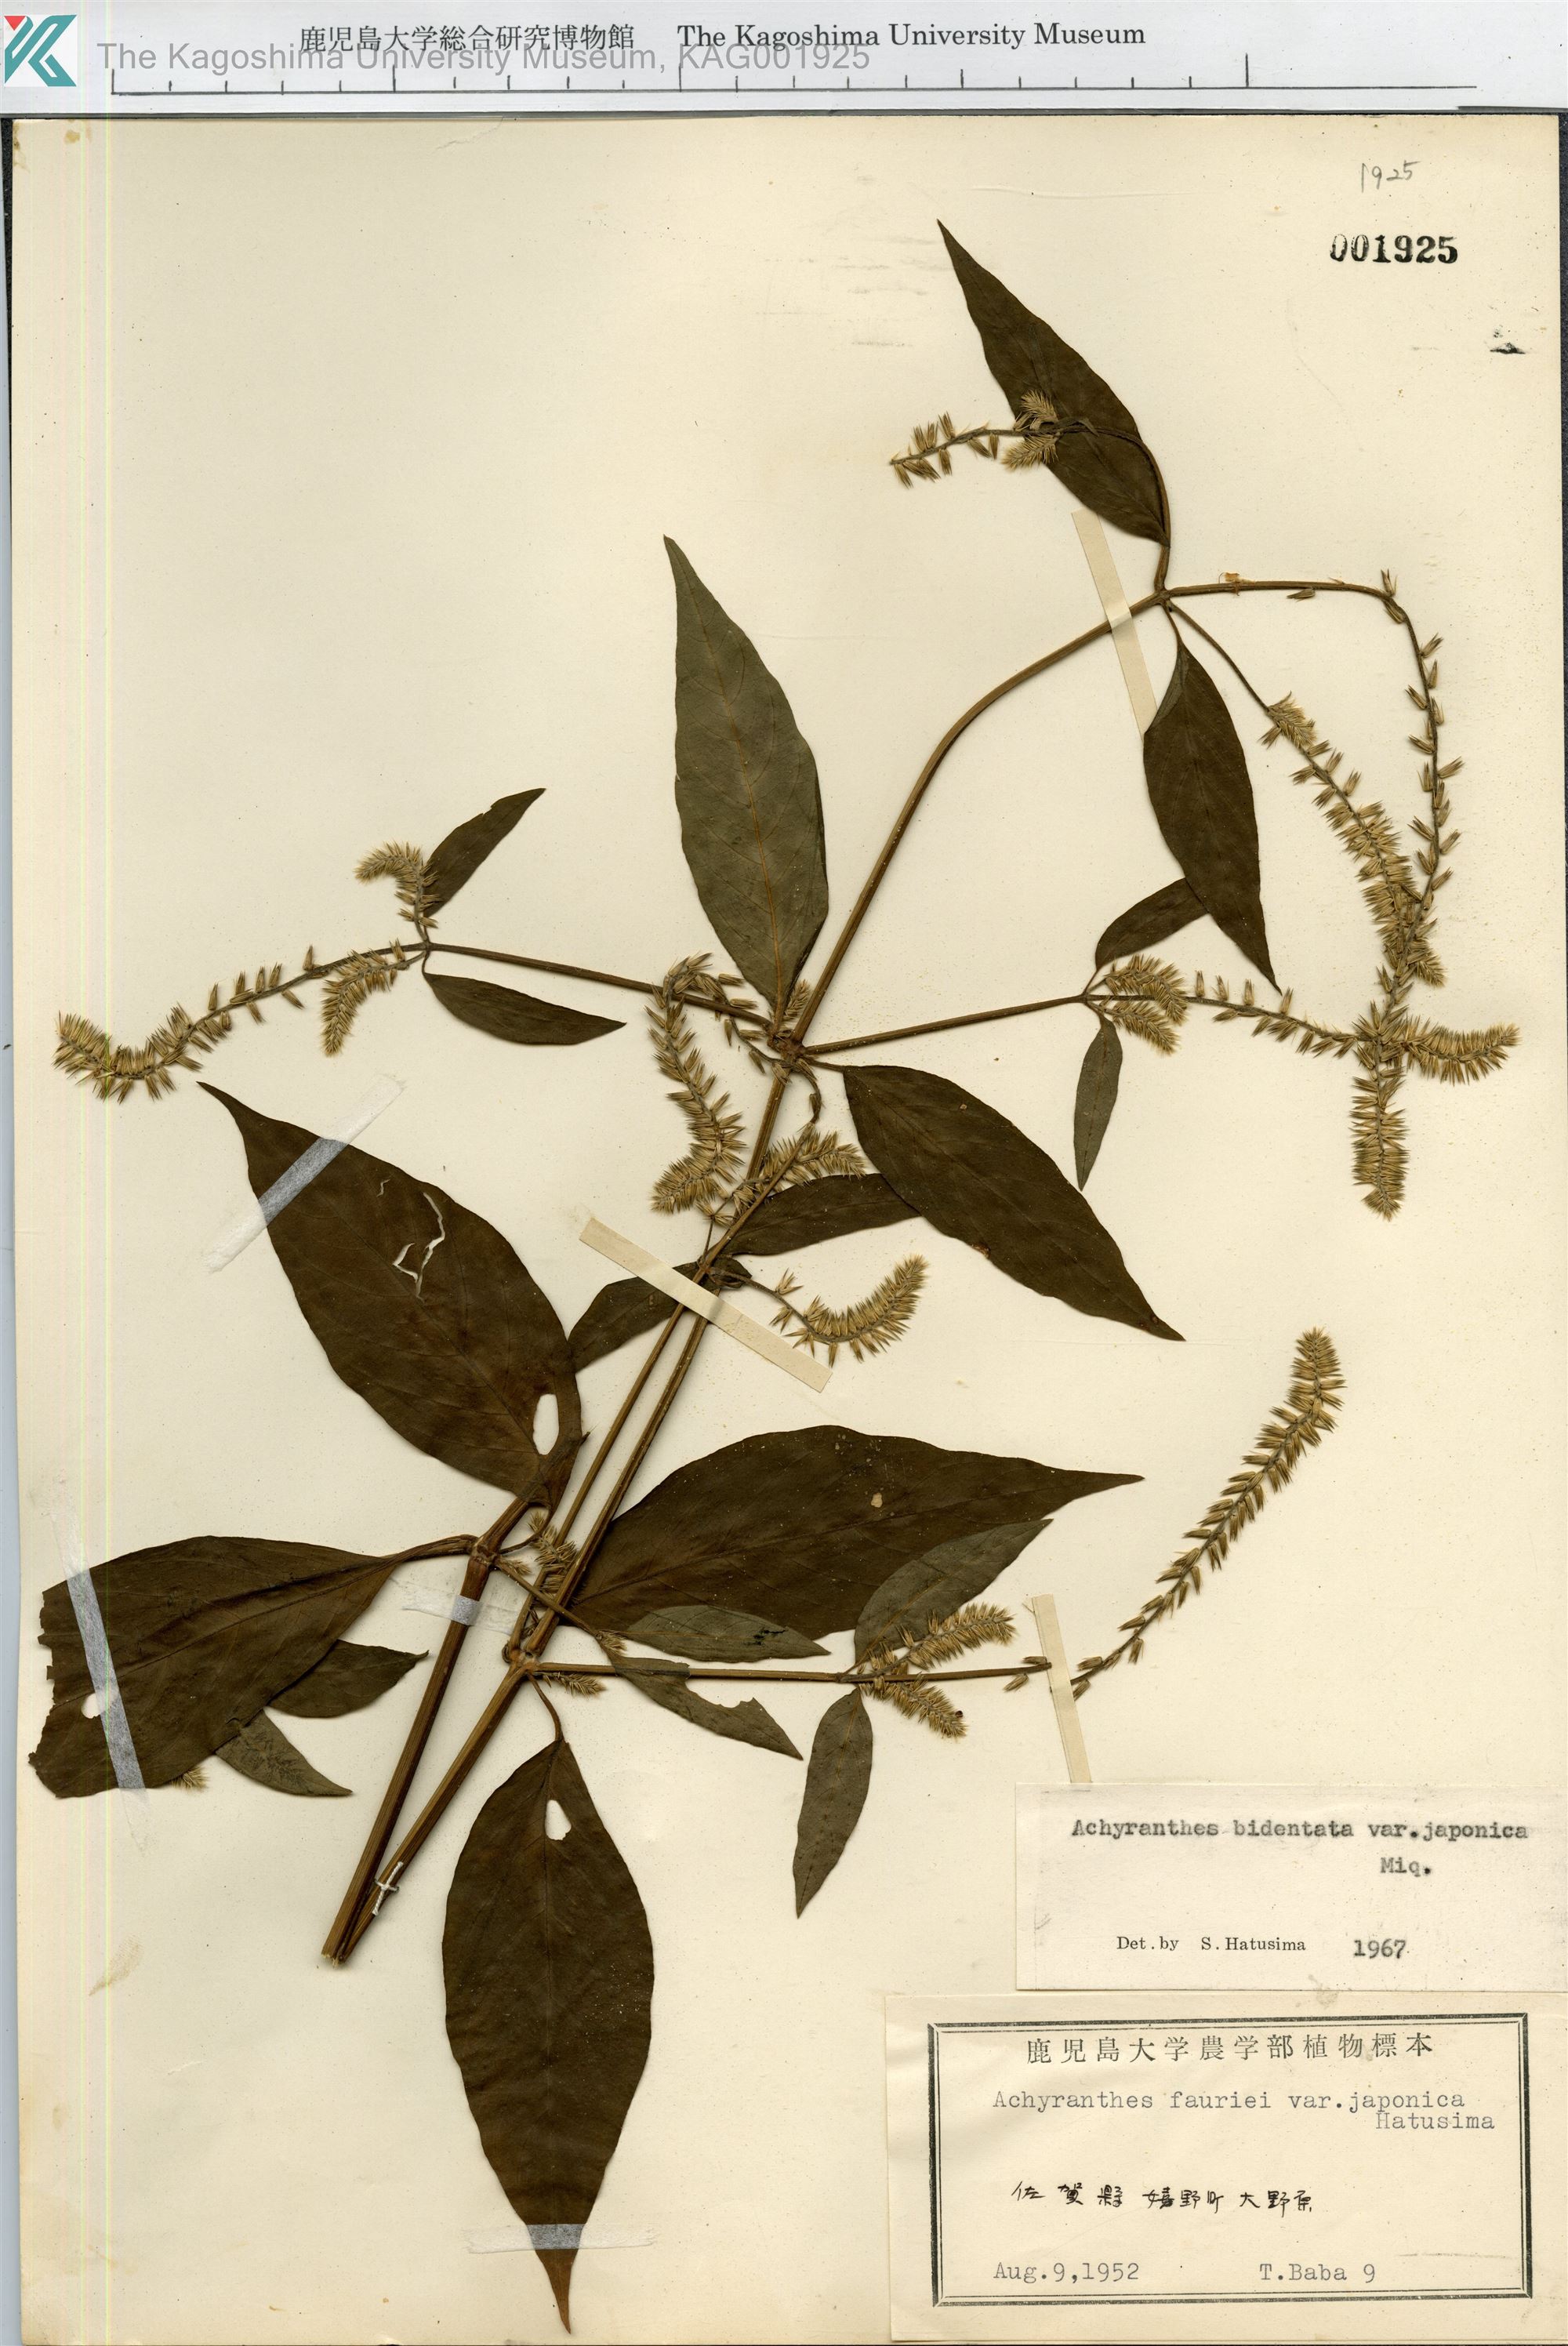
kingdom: Plantae
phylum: Tracheophyta
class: Magnoliopsida
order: Caryophyllales
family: Amaranthaceae
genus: Achyranthes
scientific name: Achyranthes bidentata
